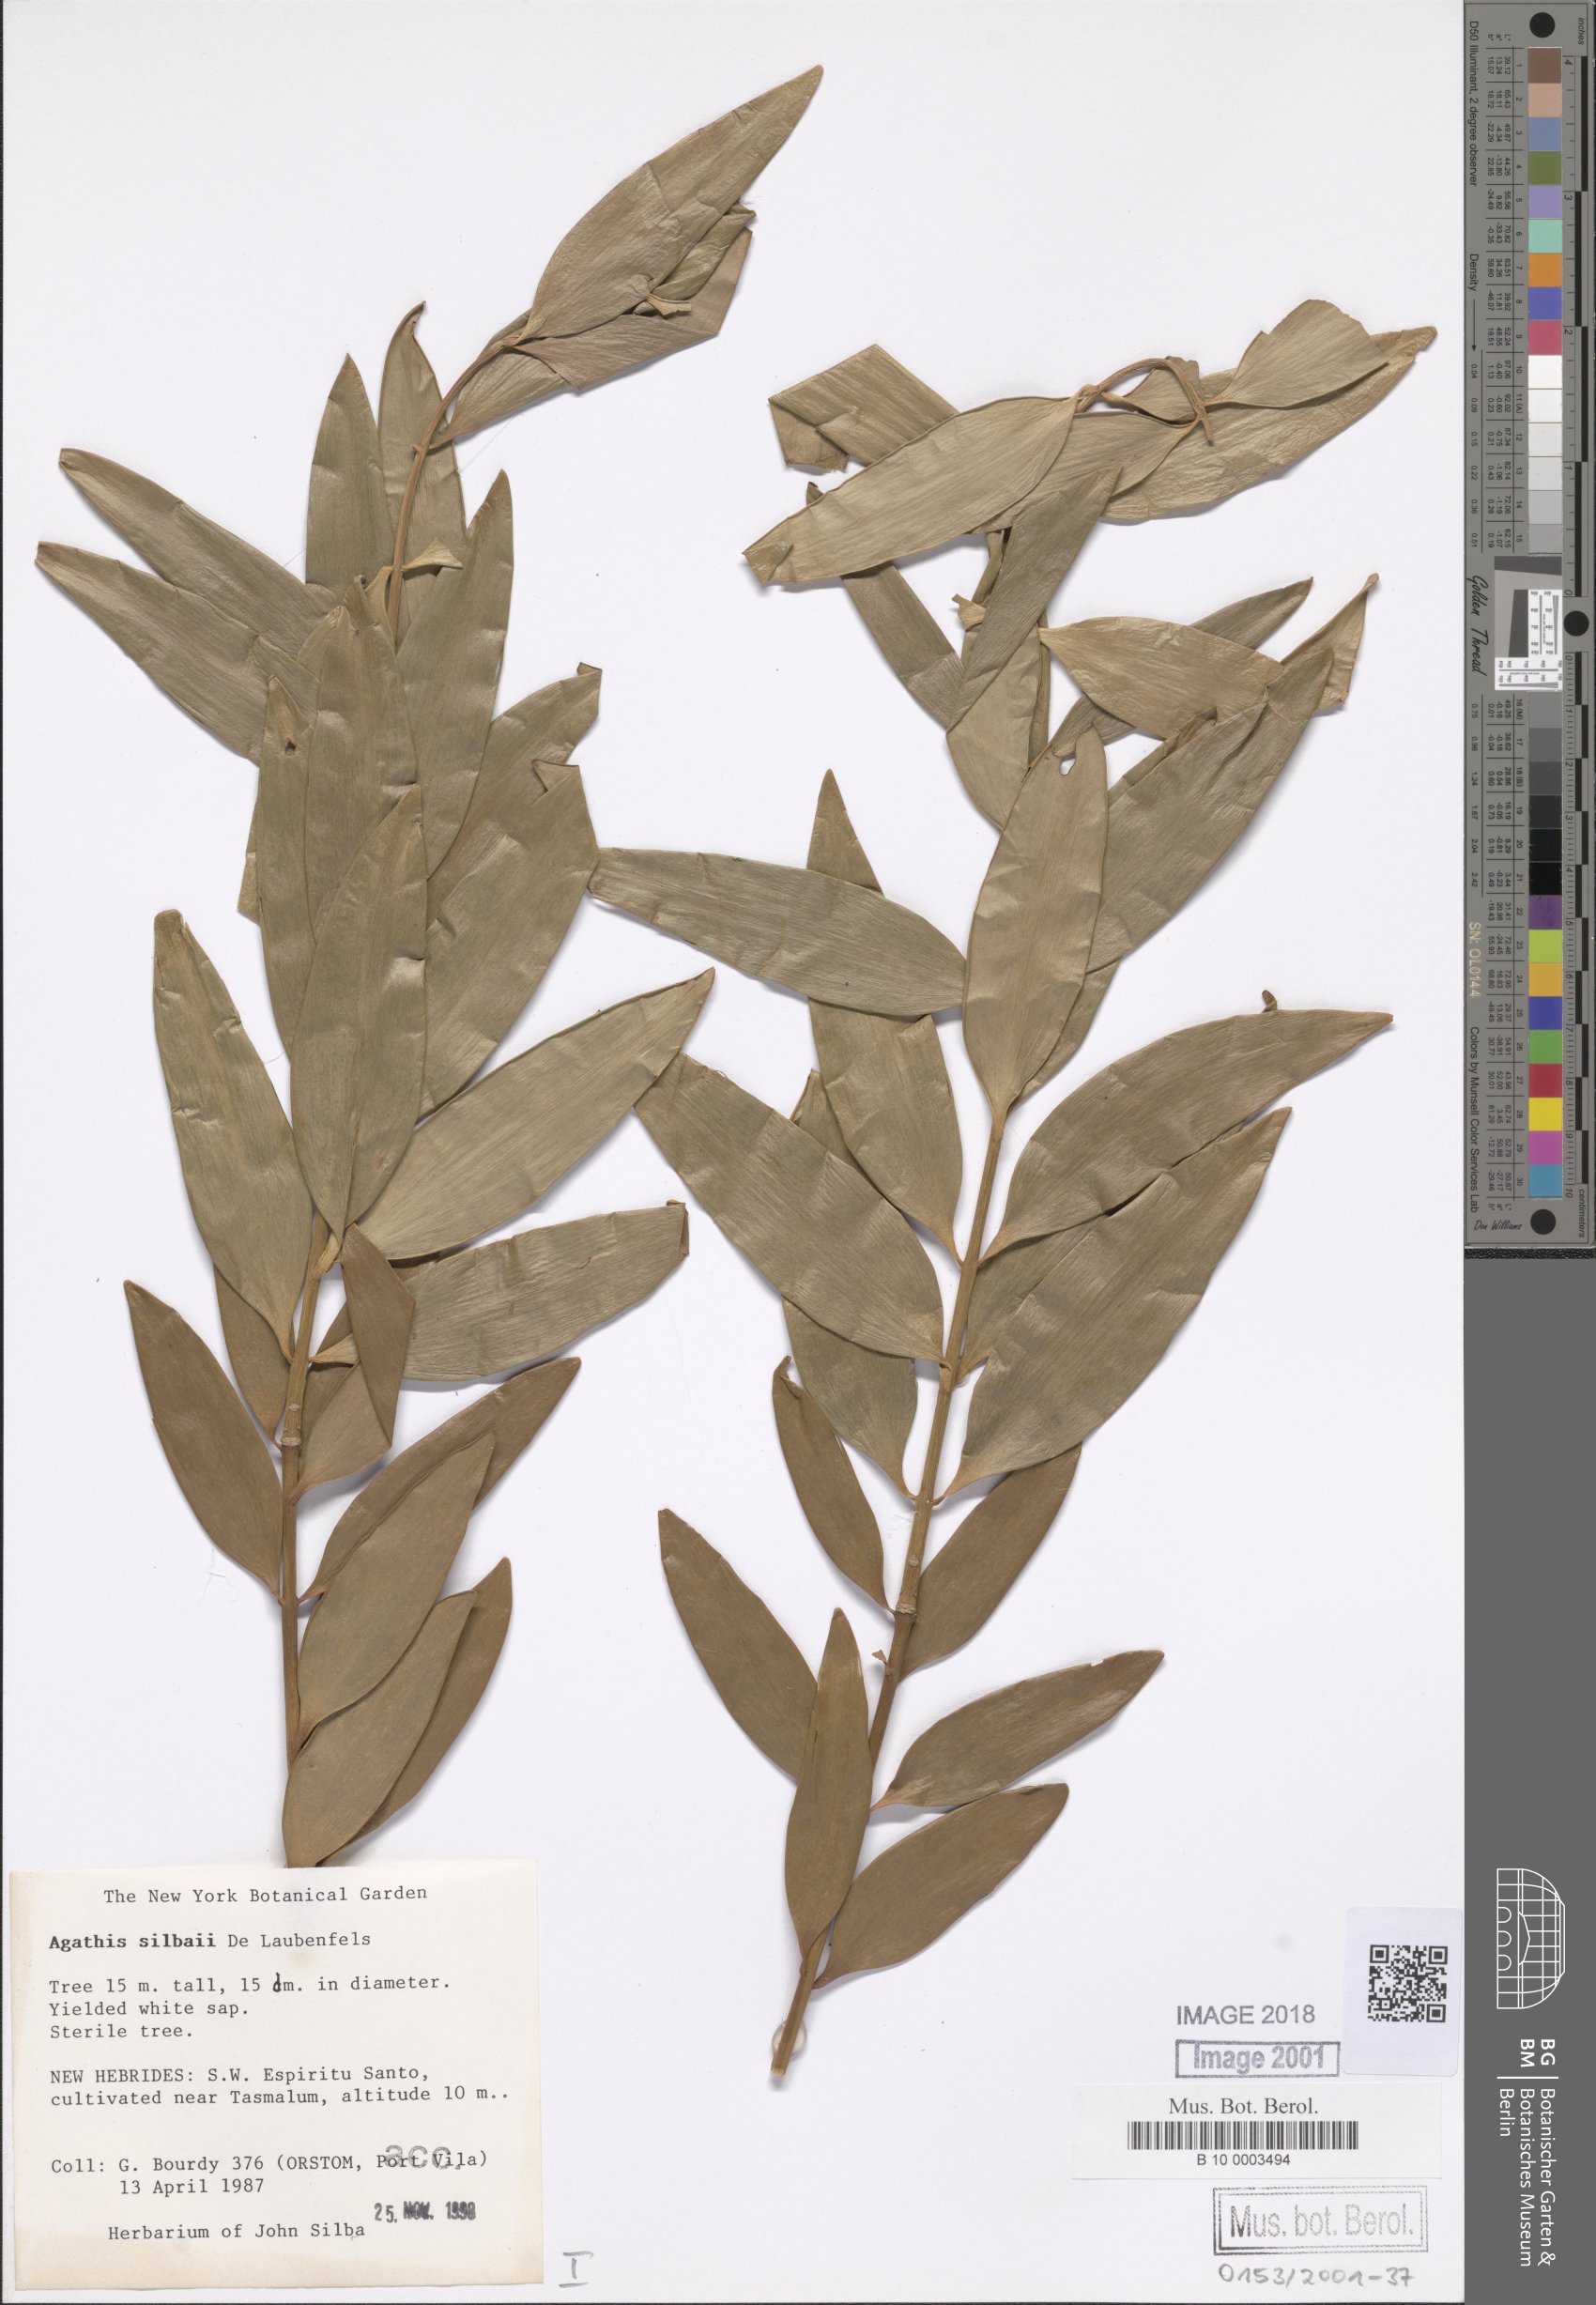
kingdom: Plantae
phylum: Tracheophyta
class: Pinopsida
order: Pinales
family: Araucariaceae
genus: Agathis
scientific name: Agathis silbae
